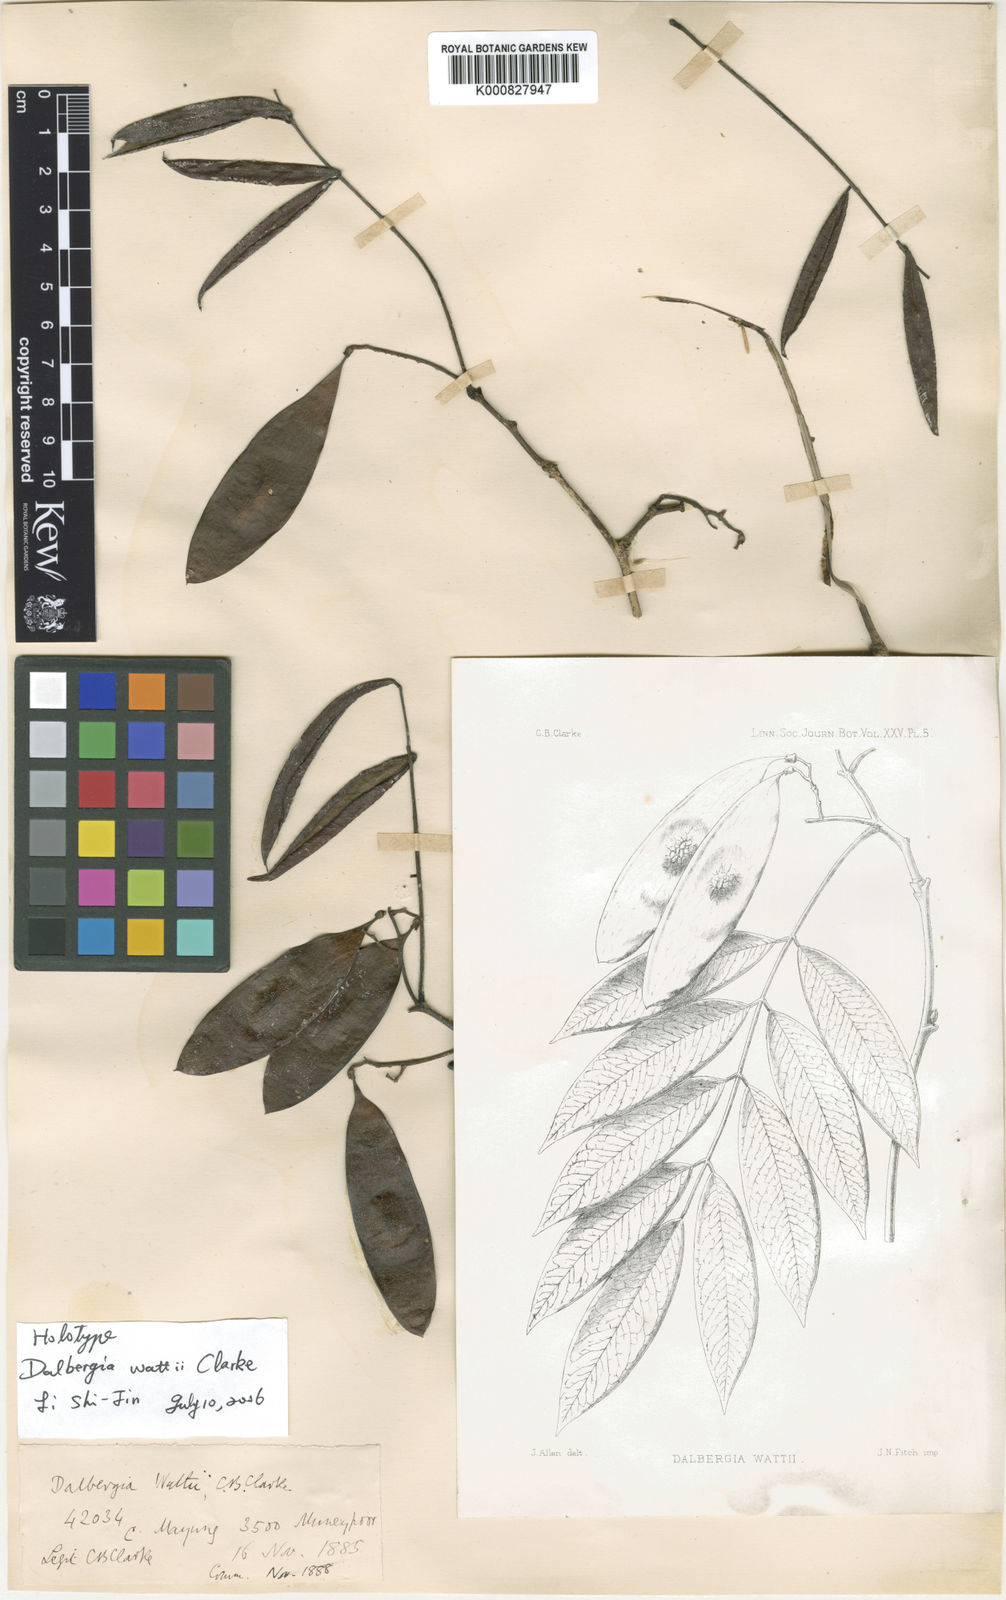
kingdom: Plantae
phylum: Tracheophyta
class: Magnoliopsida
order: Fabales
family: Fabaceae
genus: Dalbergia
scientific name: Dalbergia wattii
